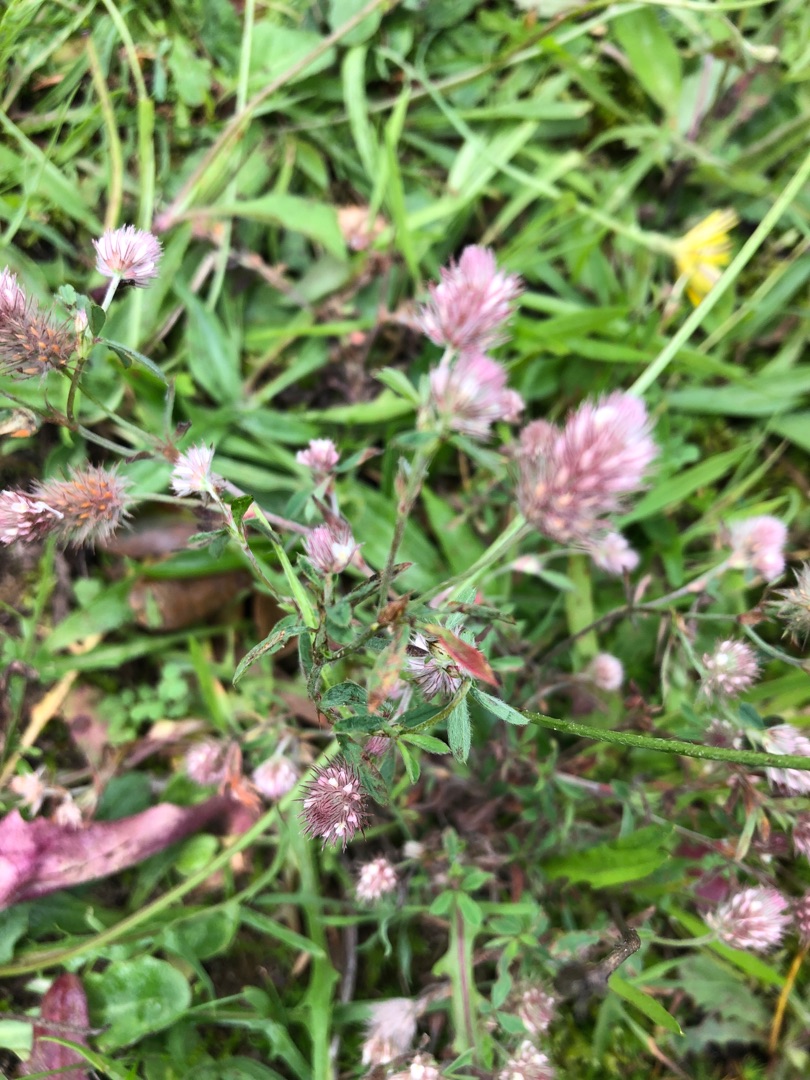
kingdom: Plantae
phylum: Tracheophyta
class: Magnoliopsida
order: Fabales
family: Fabaceae
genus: Trifolium
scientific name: Trifolium arvense
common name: Hare-kløver
